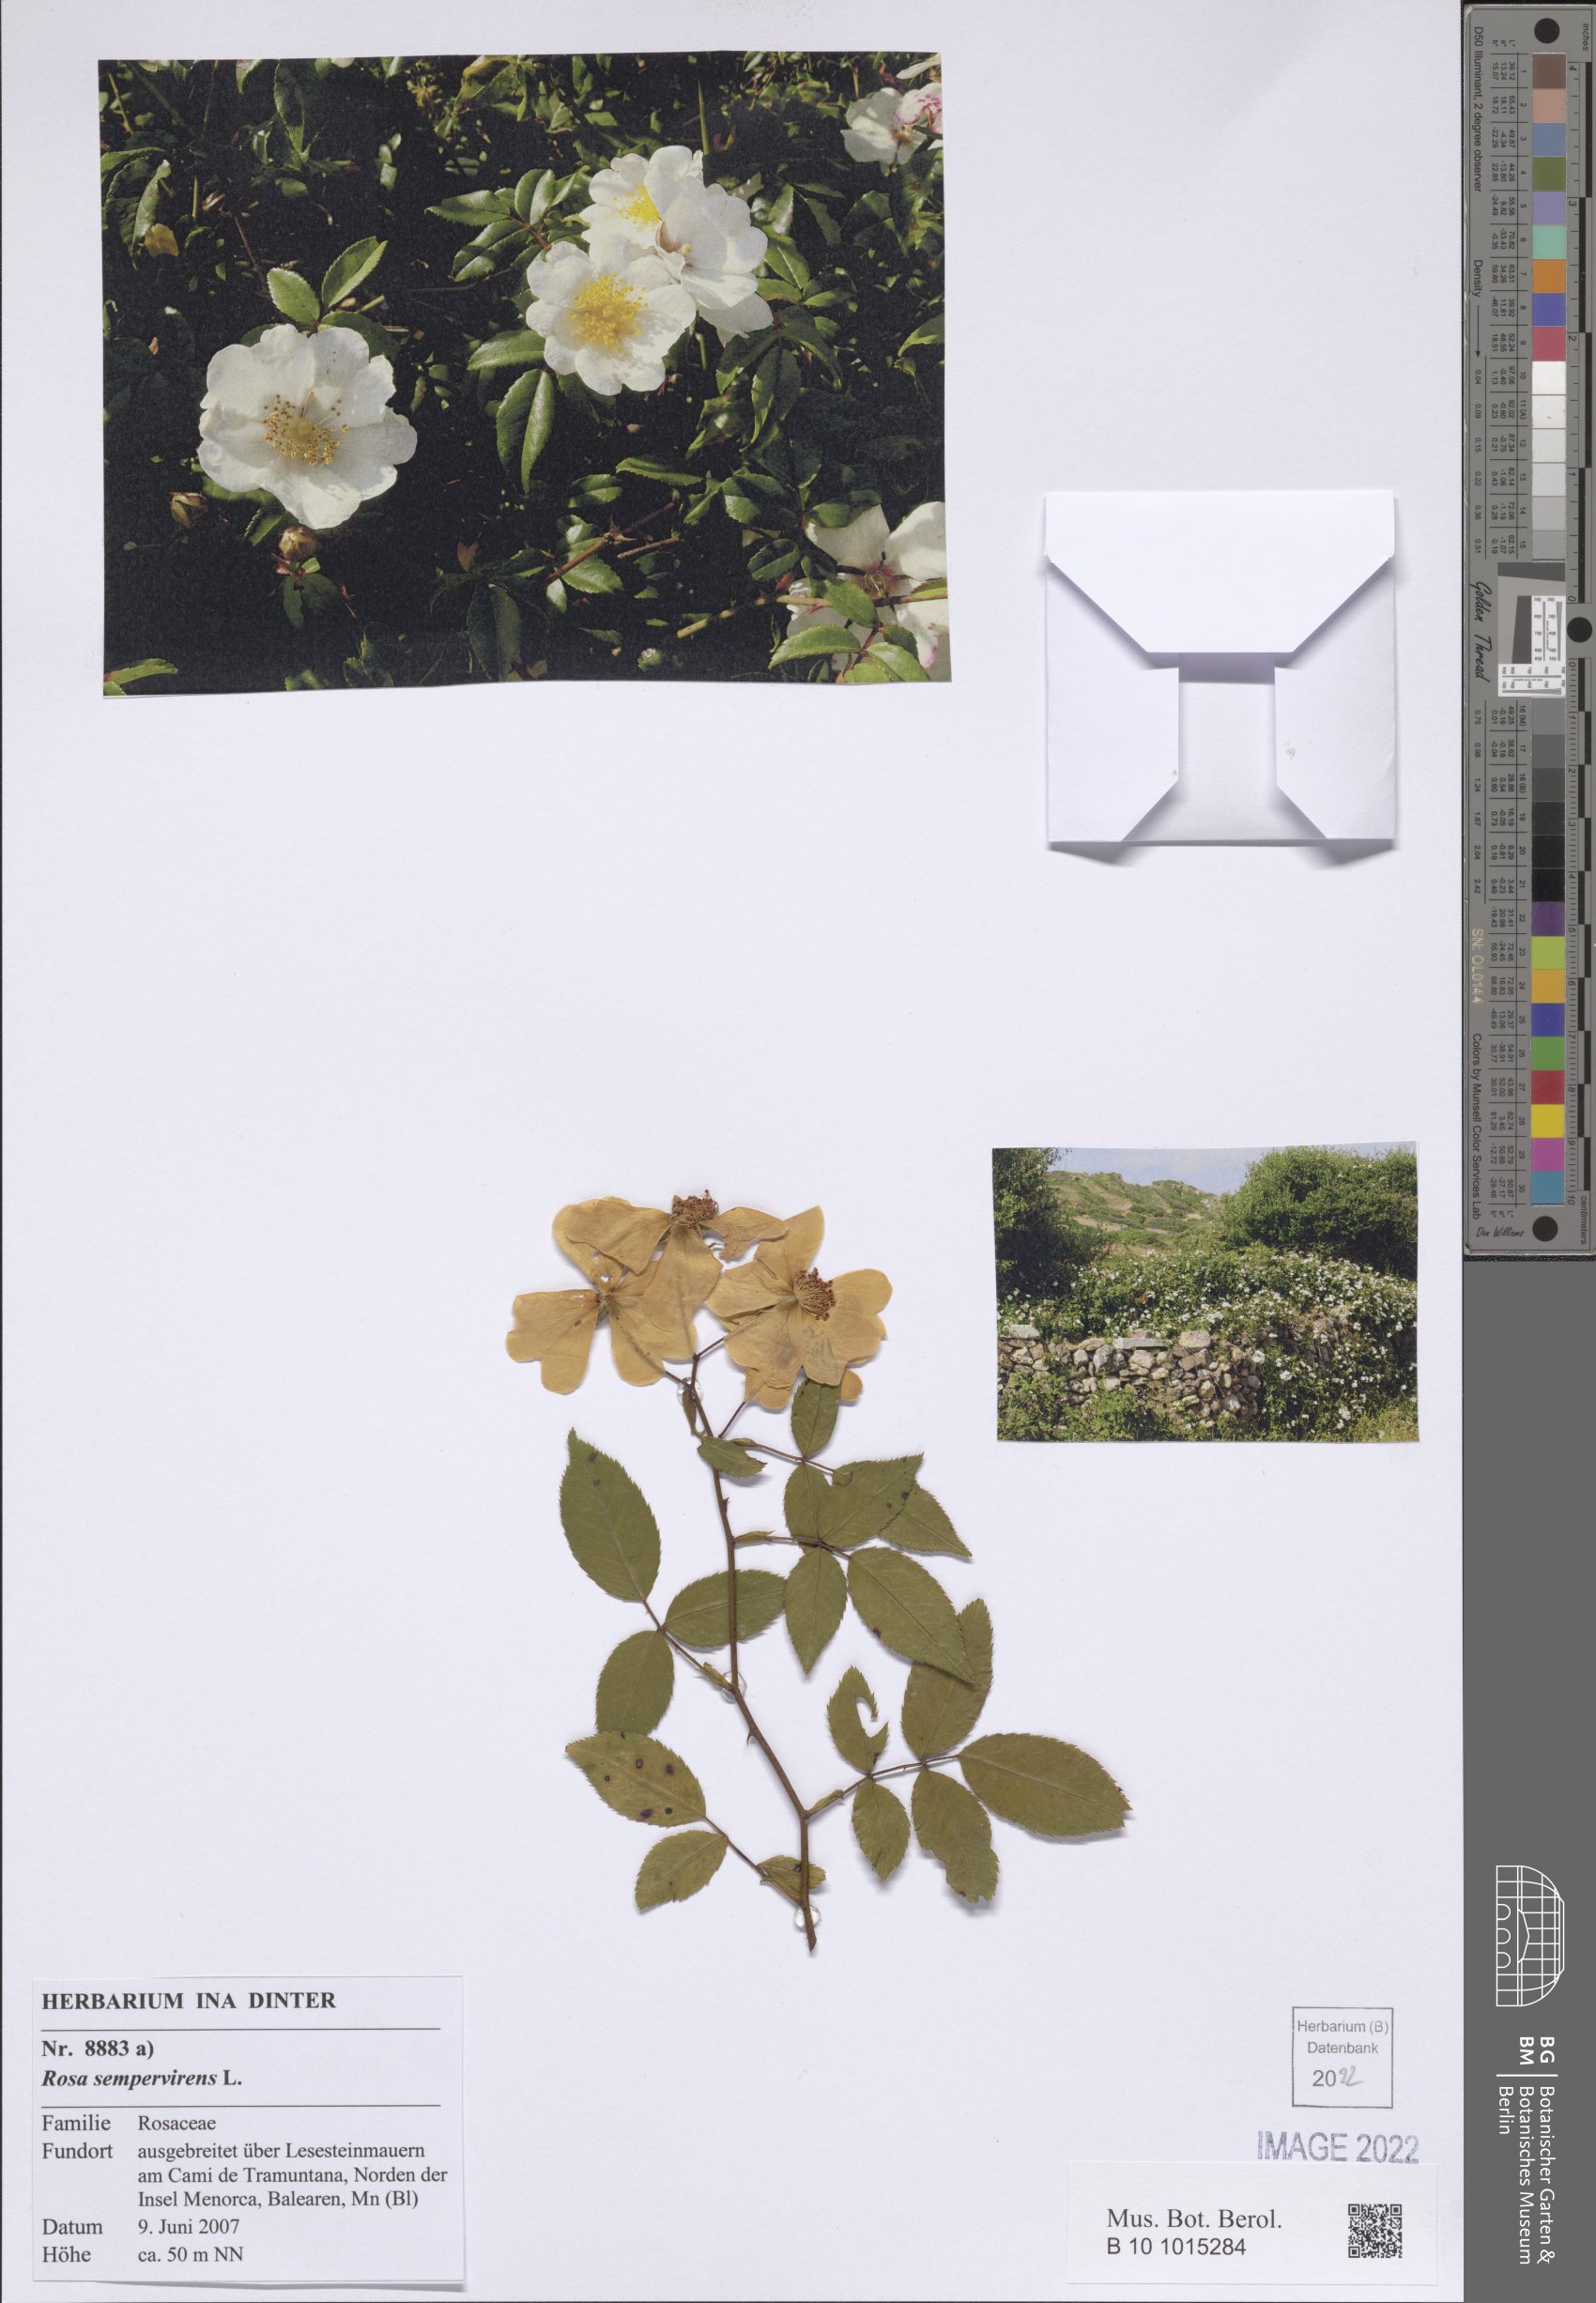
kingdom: Plantae
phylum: Tracheophyta
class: Magnoliopsida
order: Rosales
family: Rosaceae
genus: Rosa
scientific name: Rosa sempervirens
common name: Evergreen rose
